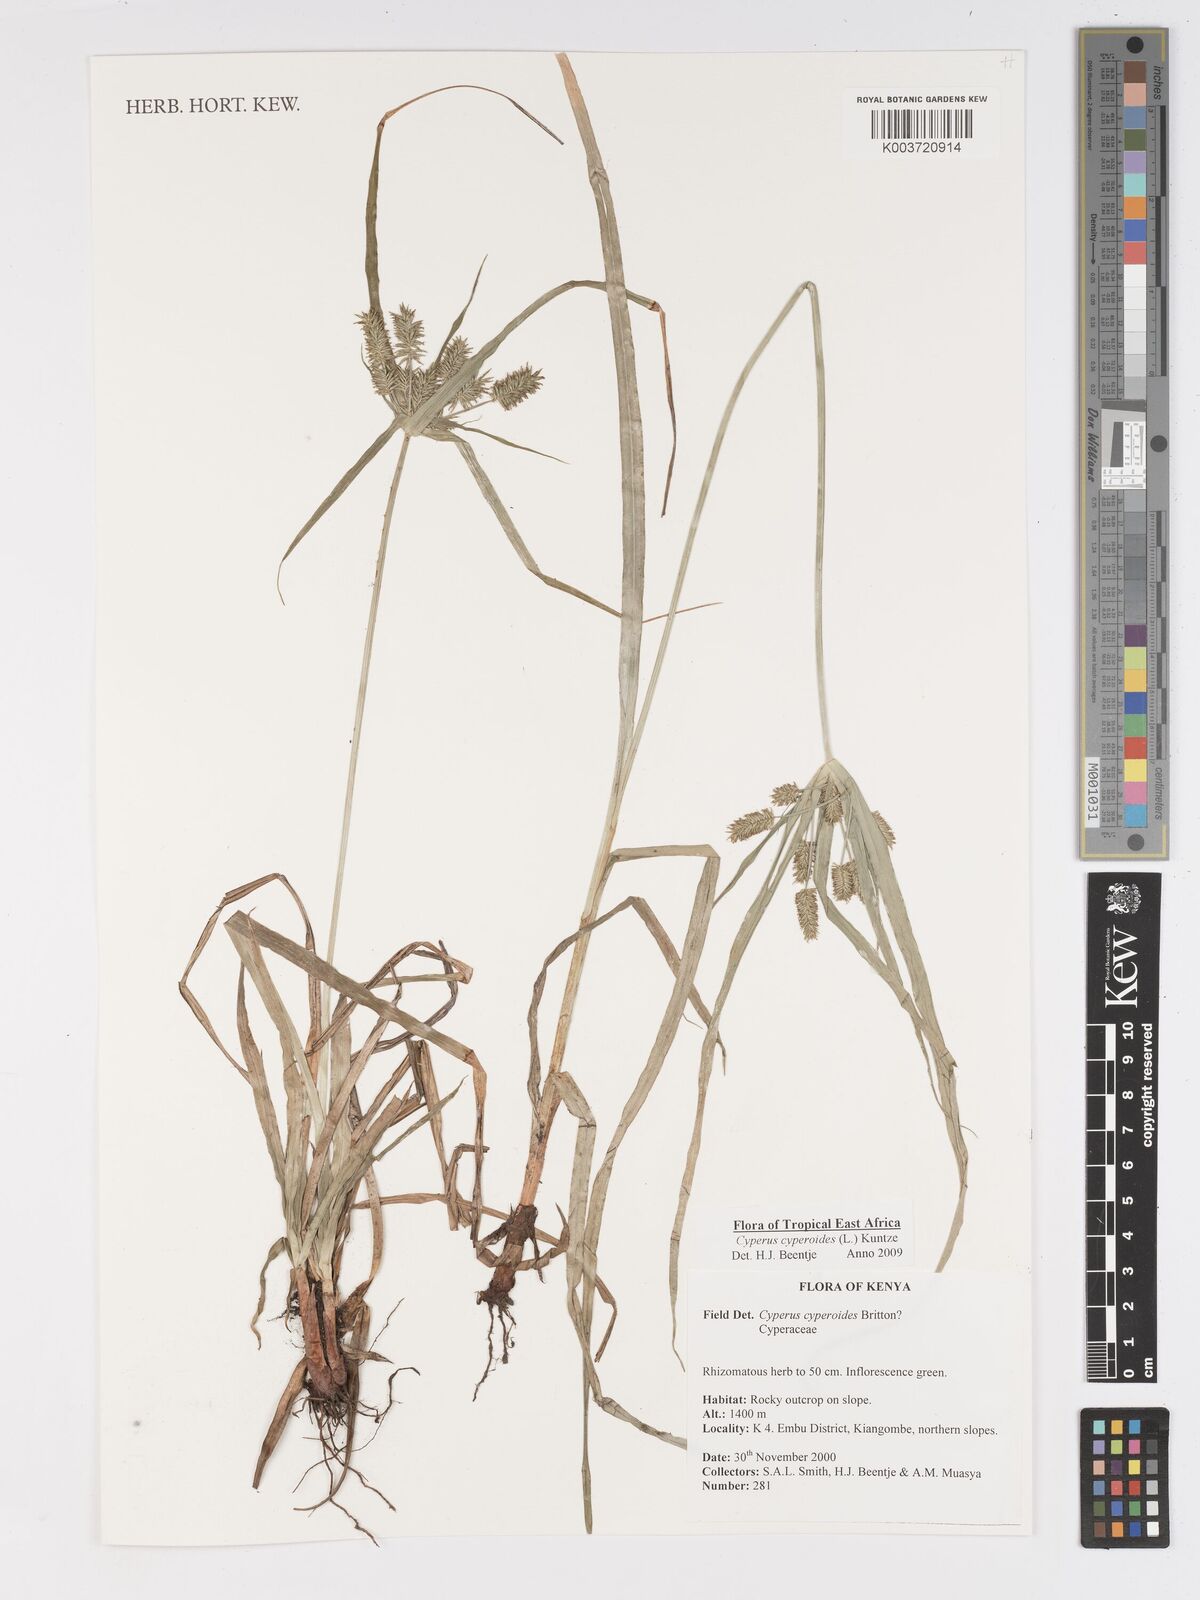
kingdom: Plantae
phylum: Tracheophyta
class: Liliopsida
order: Poales
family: Cyperaceae
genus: Cyperus
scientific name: Cyperus cyperoides
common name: Pacific island flat sedge
